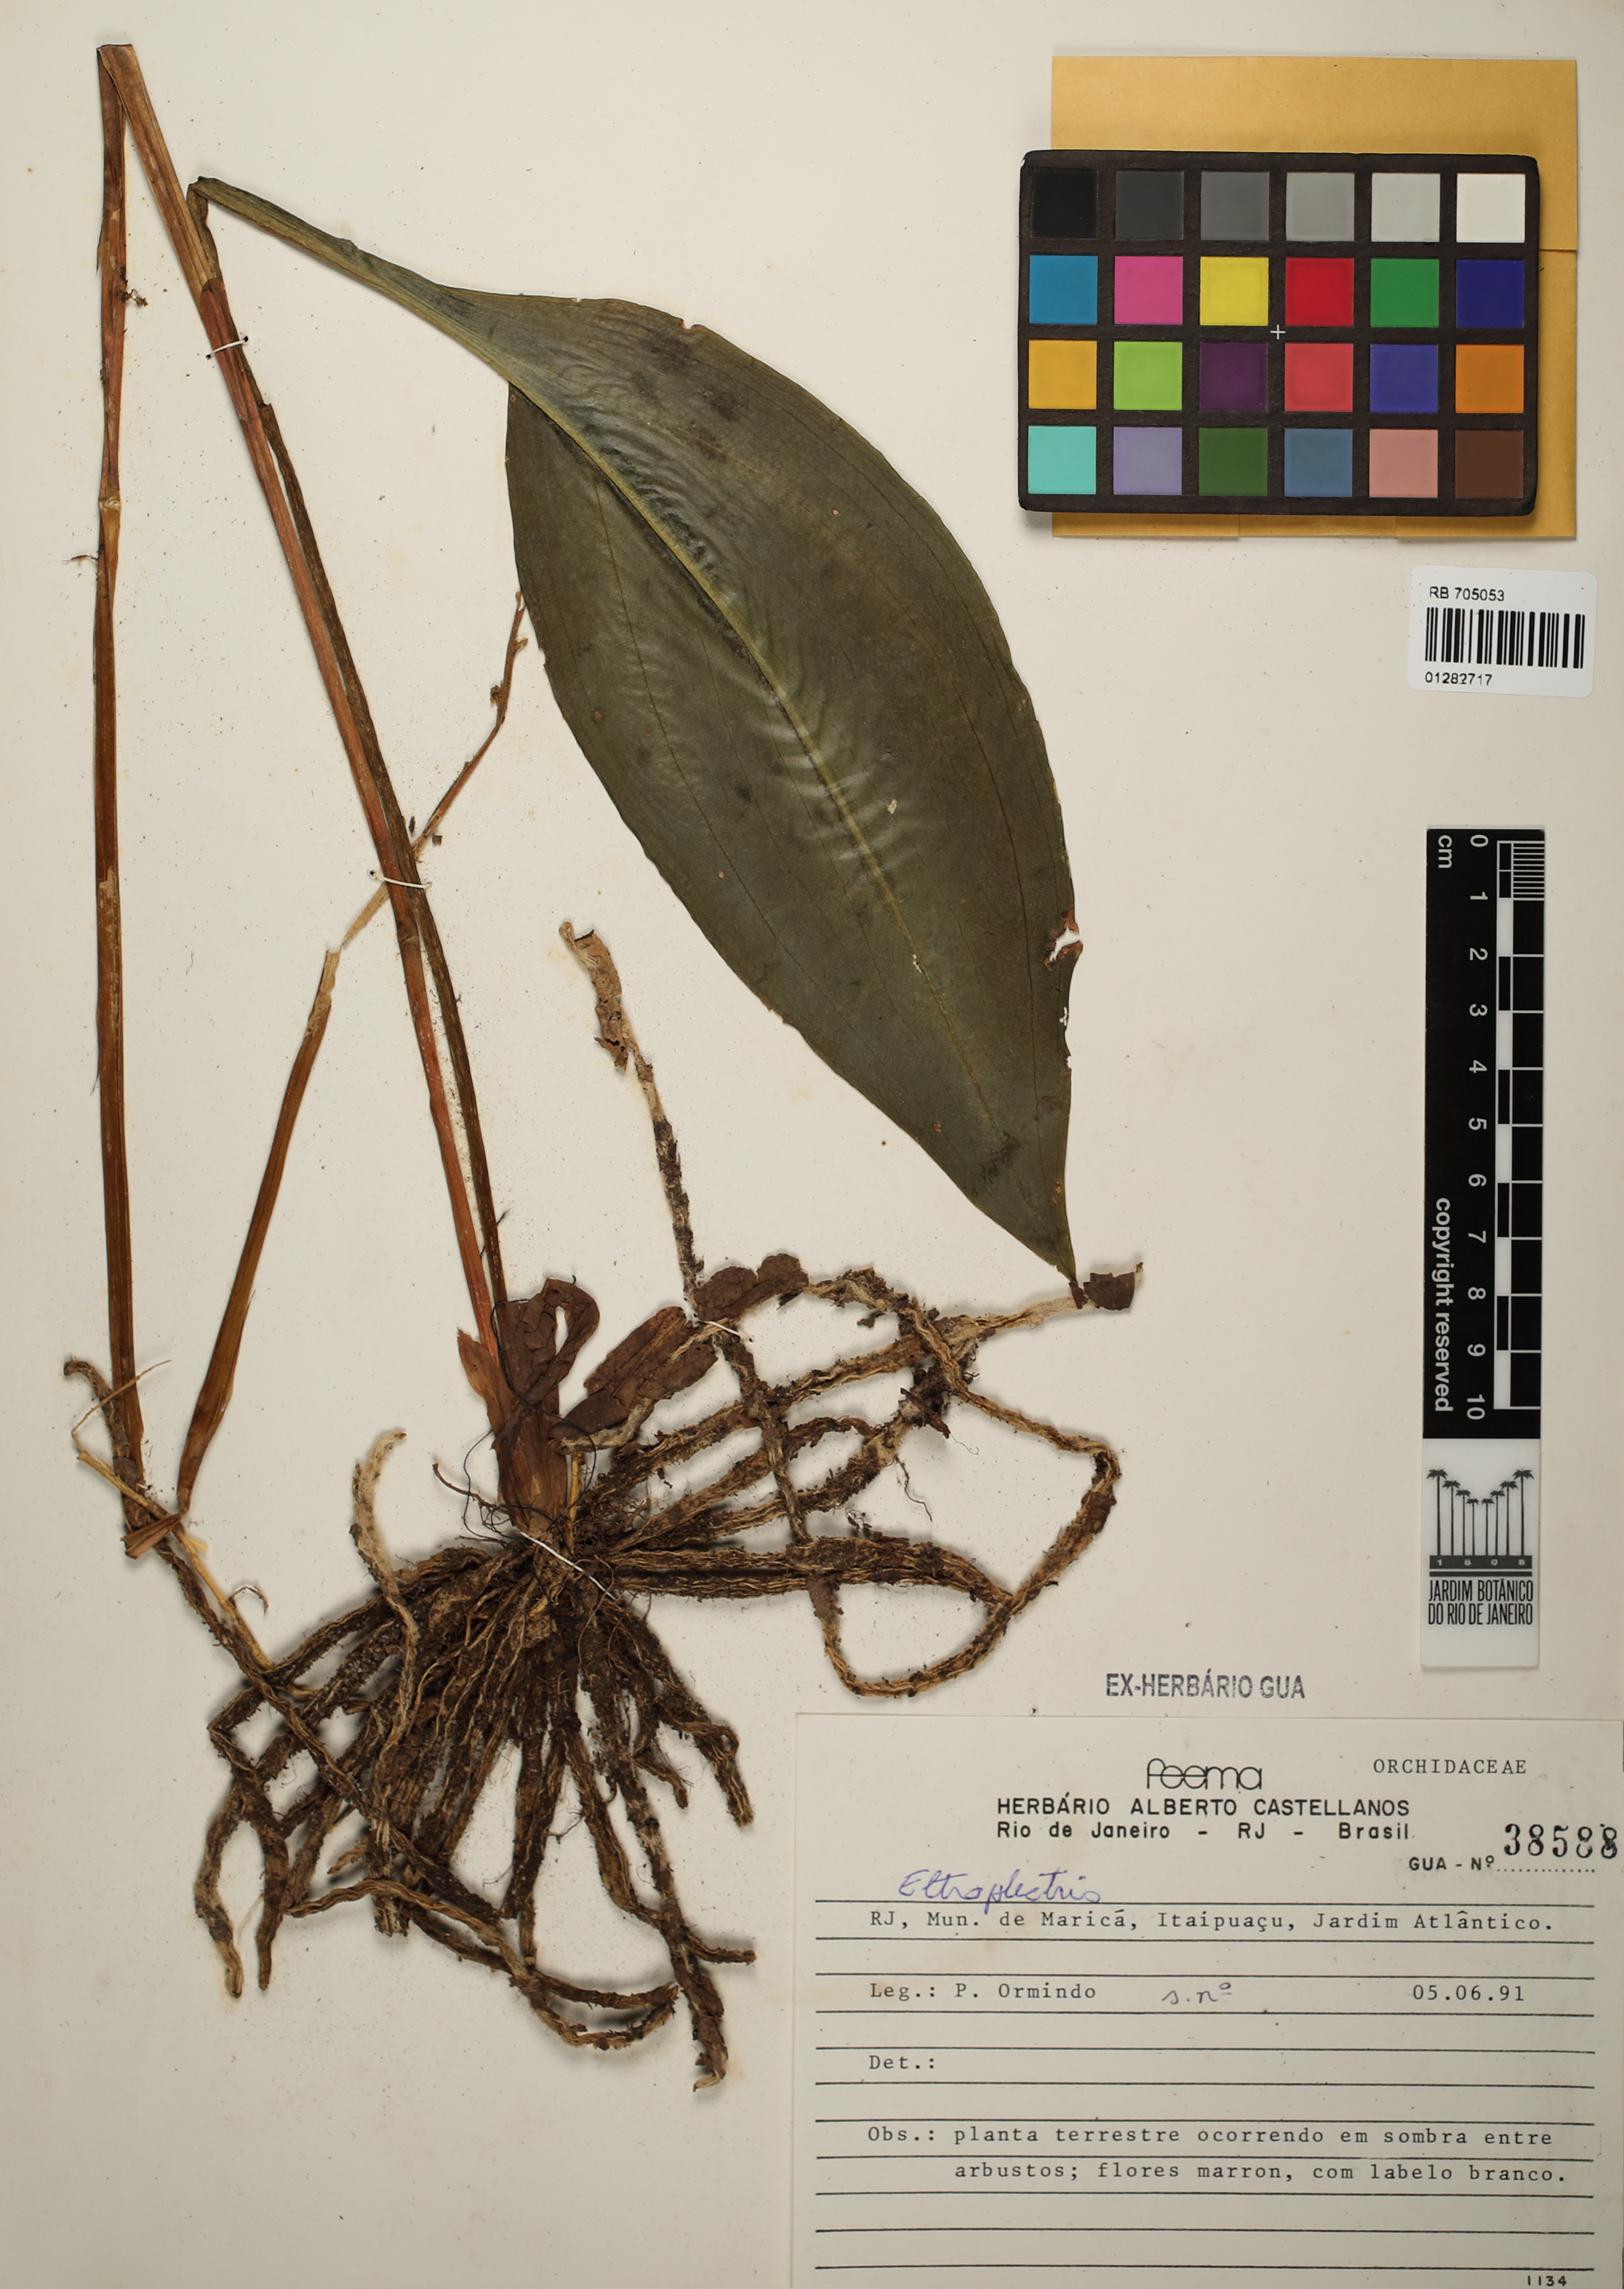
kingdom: Plantae
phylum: Tracheophyta
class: Liliopsida
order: Asparagales
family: Orchidaceae
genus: Eltroplectris
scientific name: Eltroplectris
